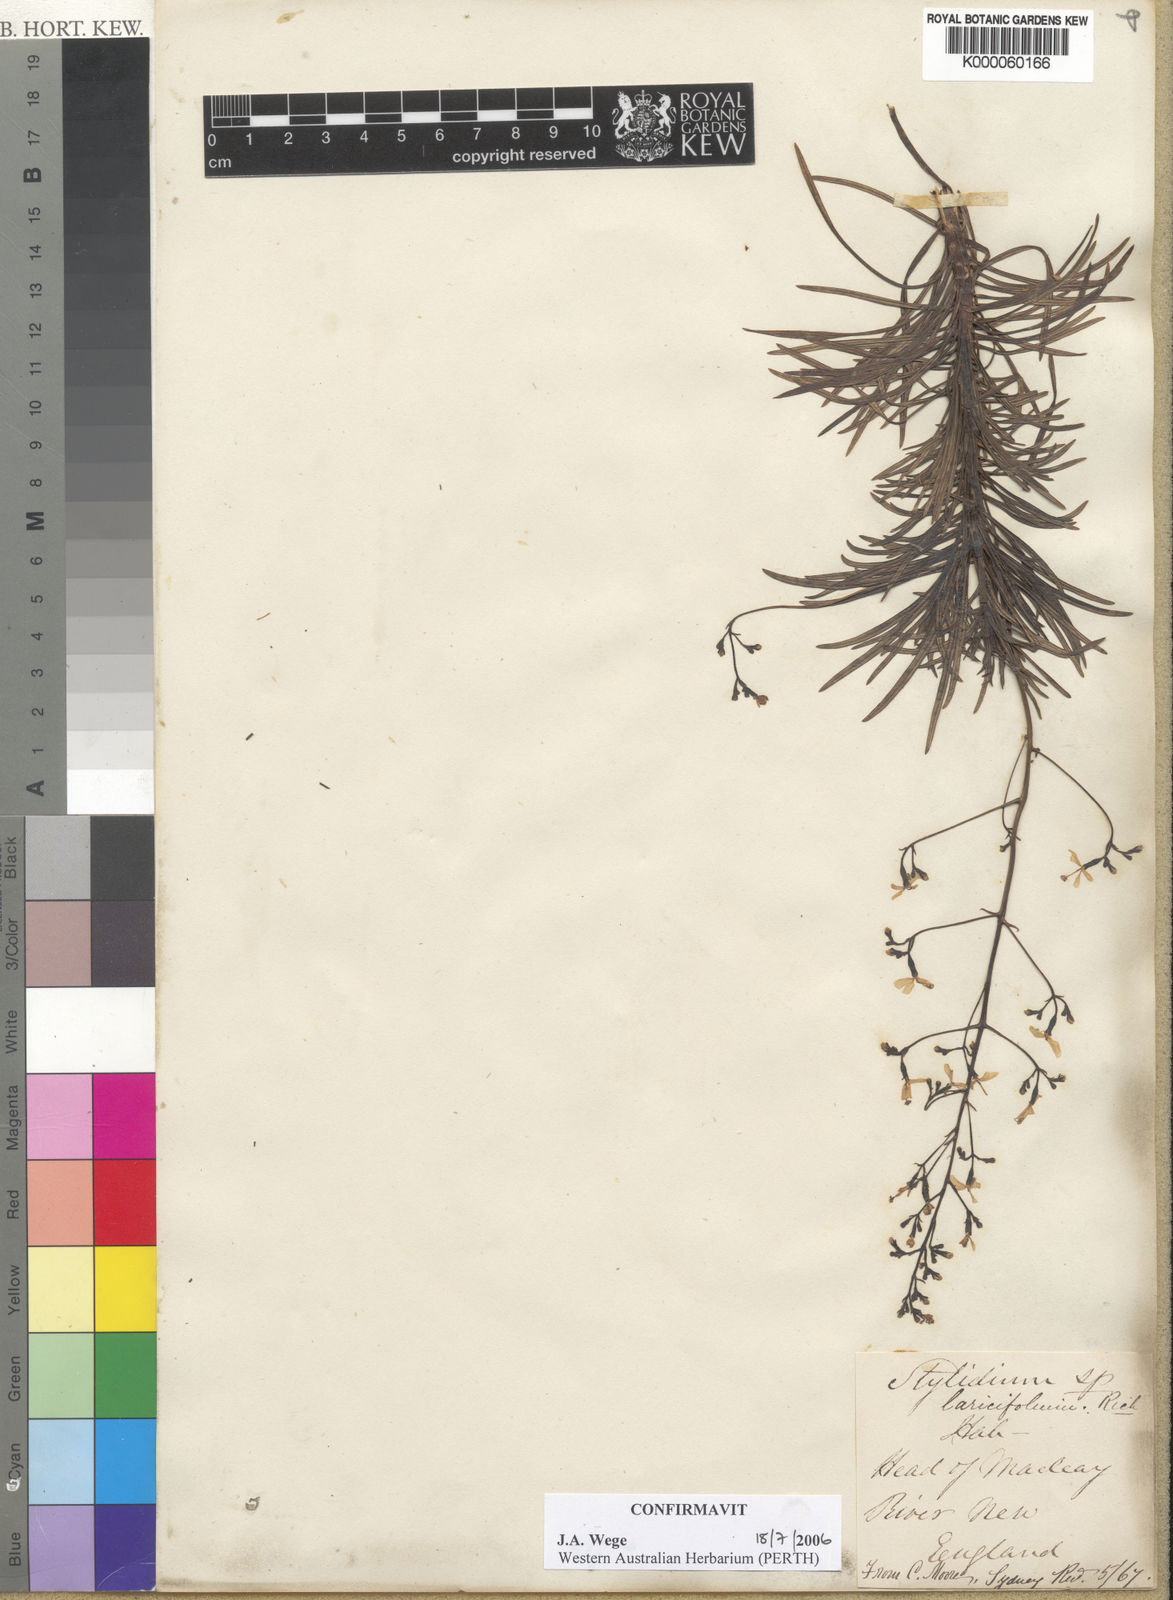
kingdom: Plantae
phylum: Tracheophyta
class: Magnoliopsida
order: Asterales
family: Stylidiaceae
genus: Stylidium
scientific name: Stylidium laricifolium
